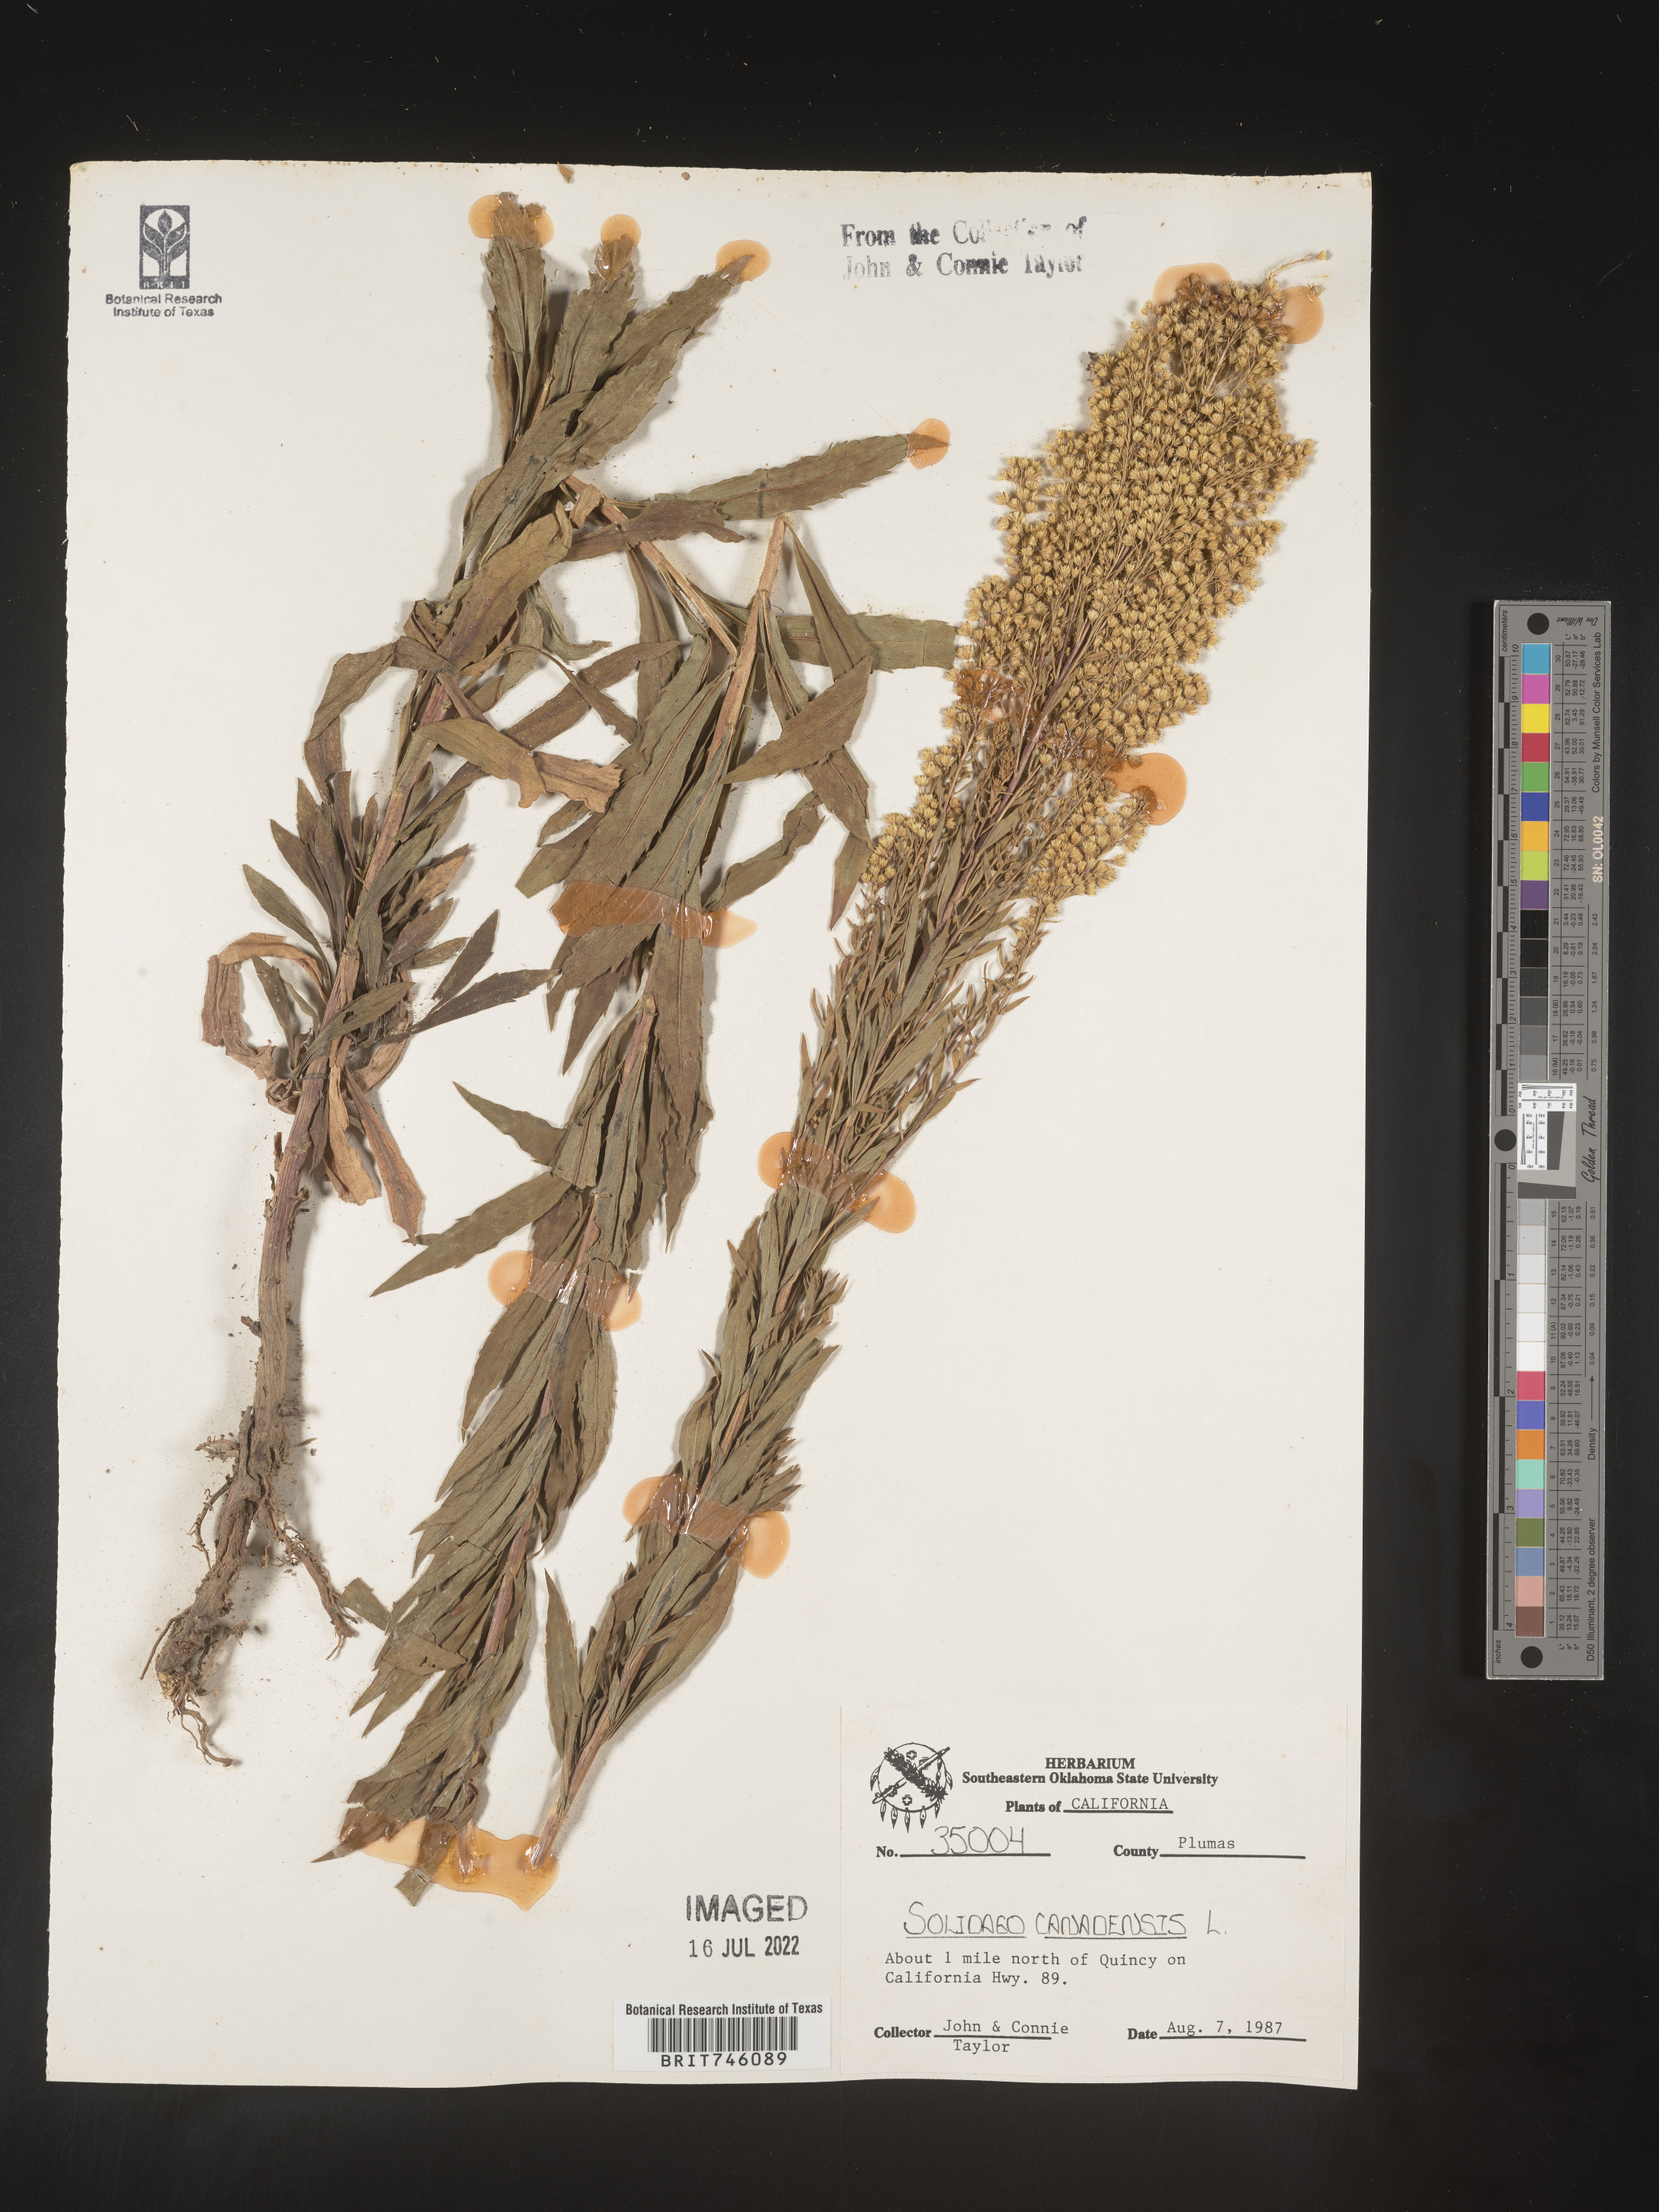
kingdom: Plantae
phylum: Tracheophyta
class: Magnoliopsida
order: Asterales
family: Asteraceae
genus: Solidago
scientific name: Solidago canadensis
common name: Canada goldenrod
